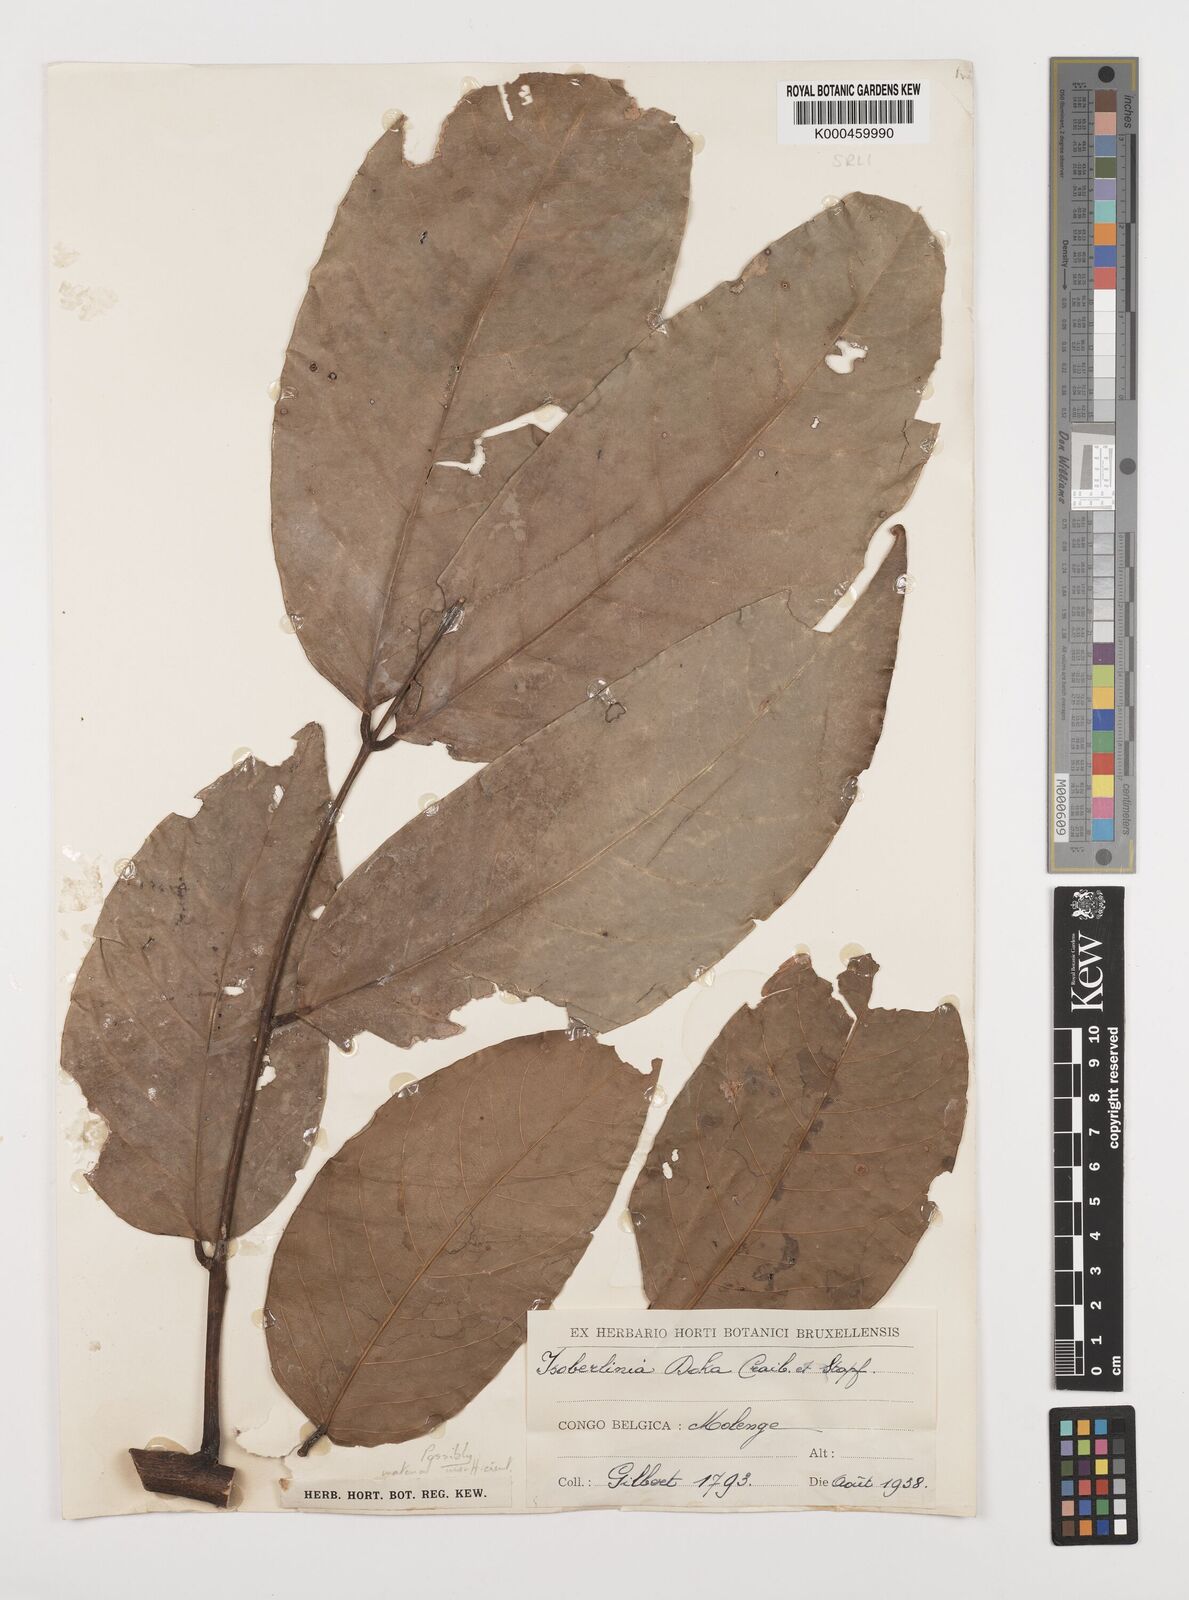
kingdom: Plantae
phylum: Tracheophyta
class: Magnoliopsida
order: Fabales
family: Fabaceae
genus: Isoberlinia
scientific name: Isoberlinia doka
